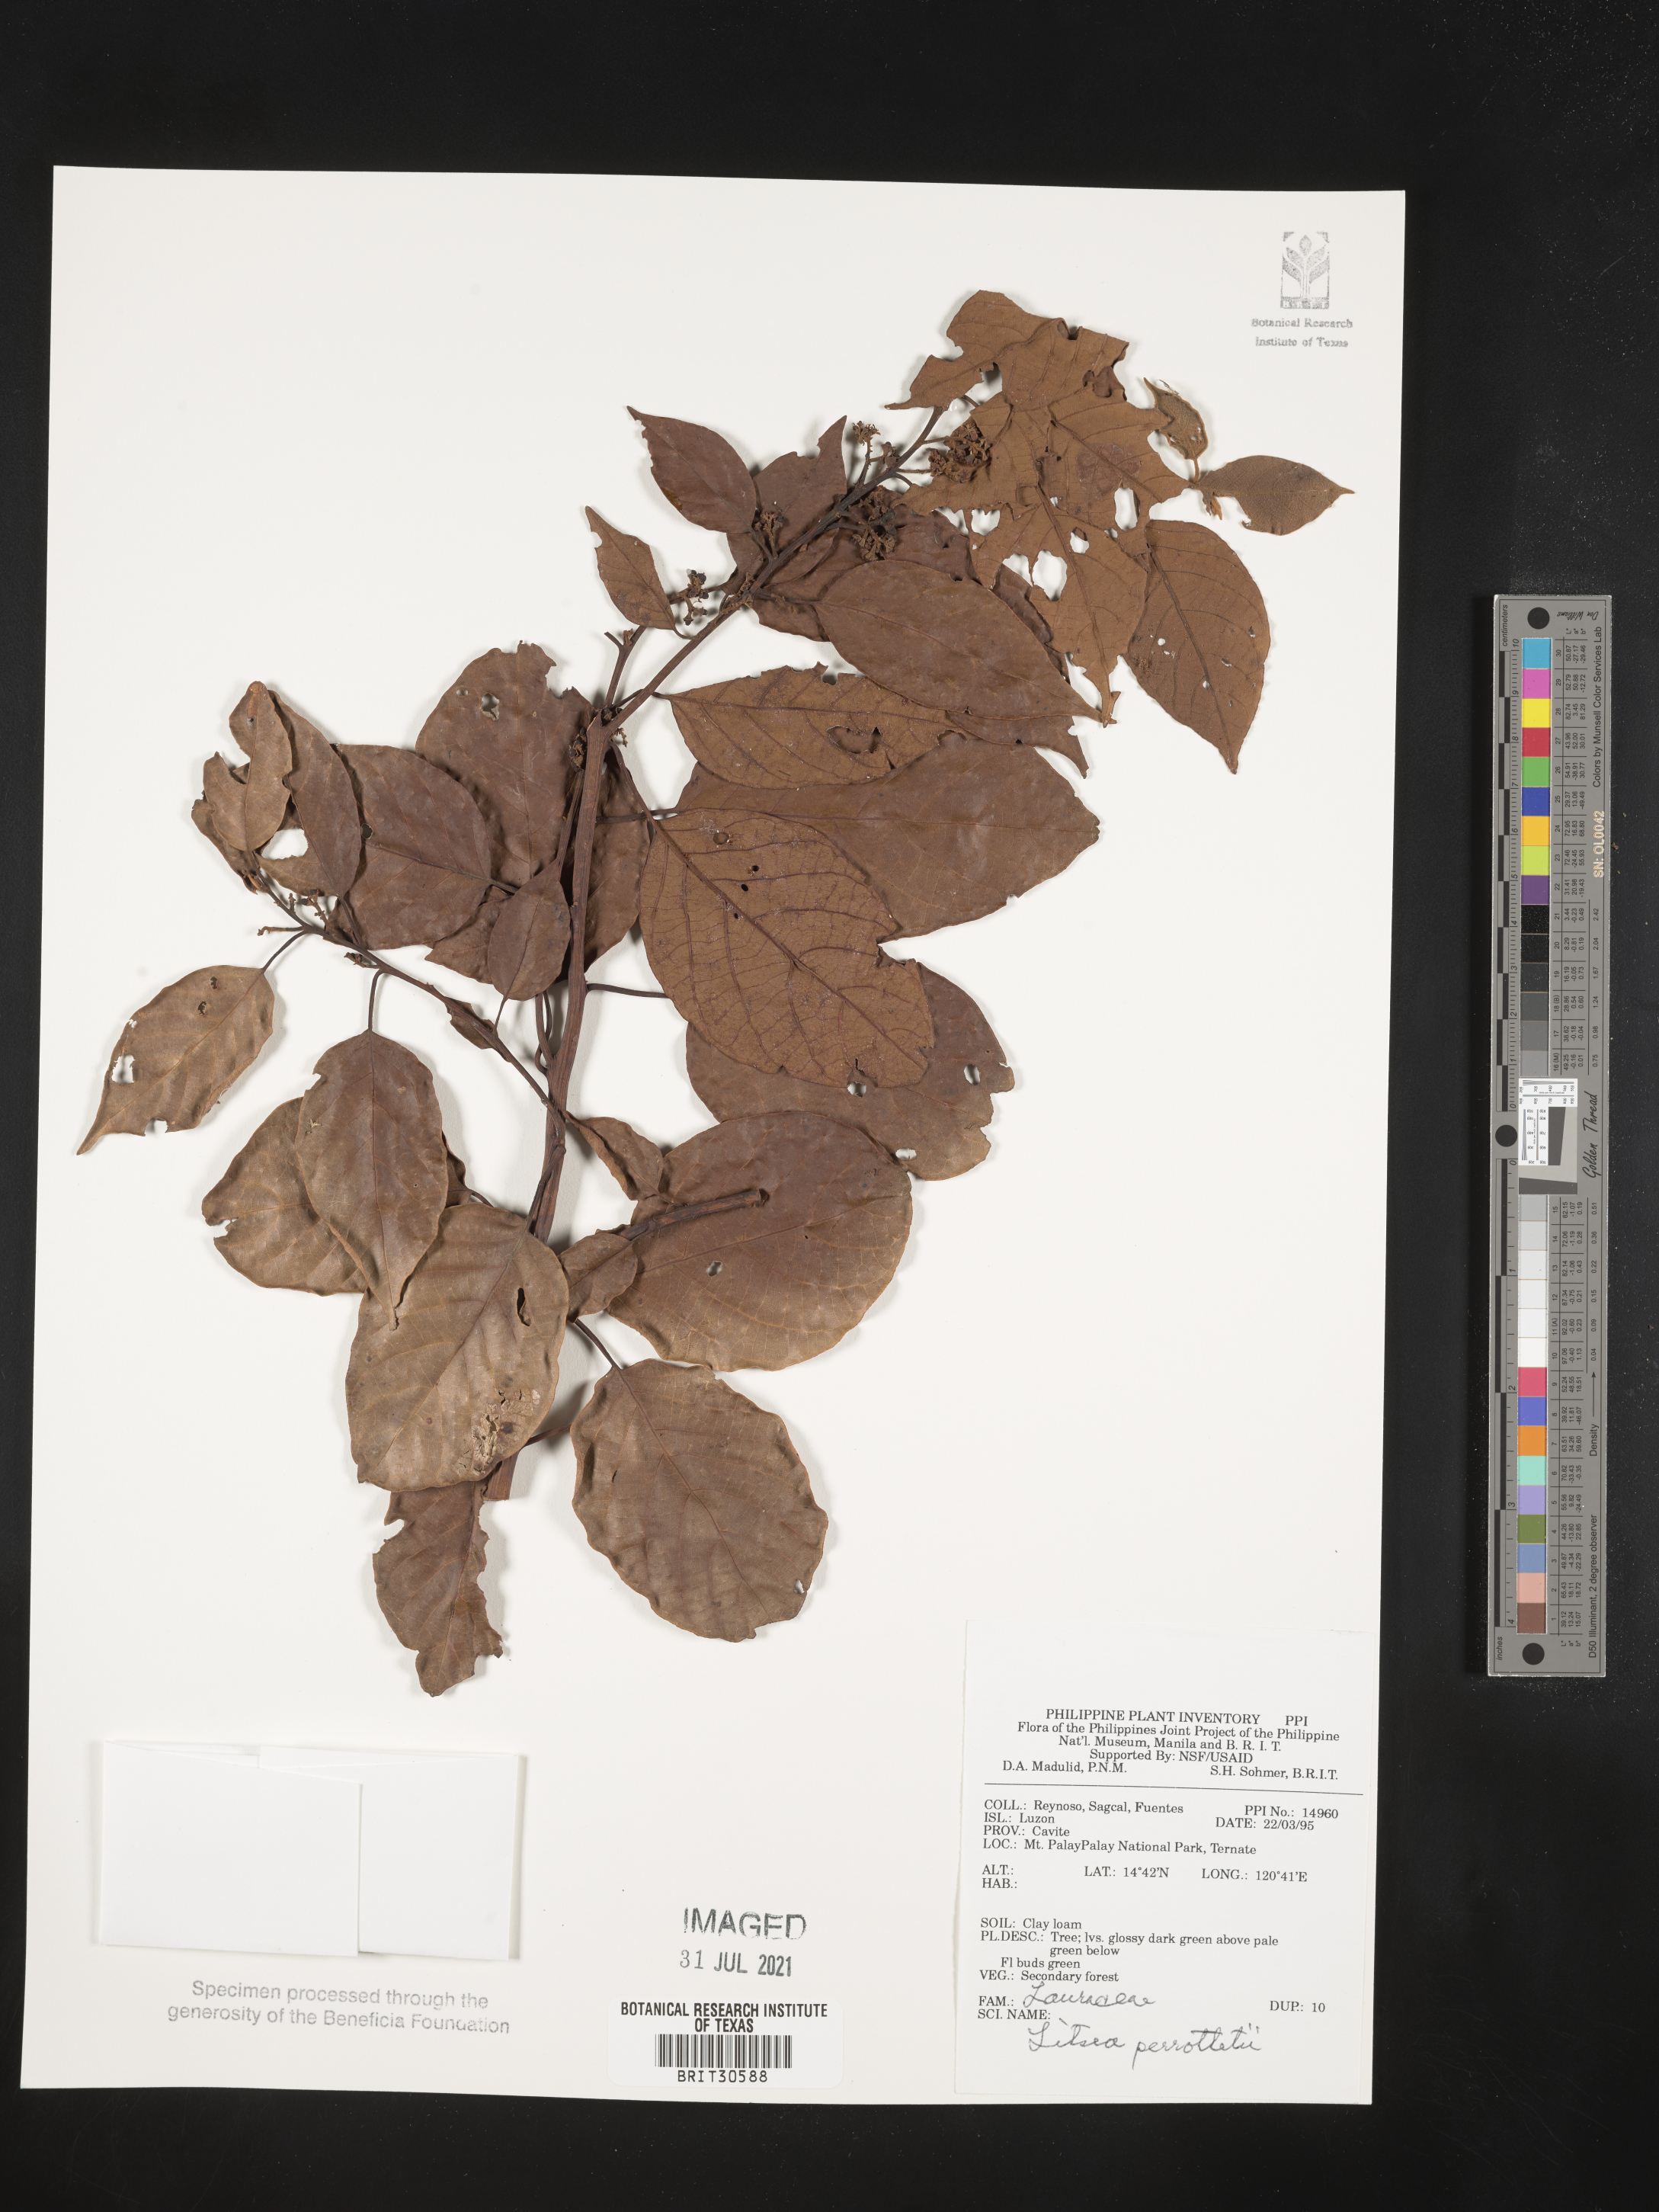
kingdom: Plantae
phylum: Tracheophyta
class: Magnoliopsida
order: Laurales
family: Lauraceae
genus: Litsea
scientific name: Litsea cordata
